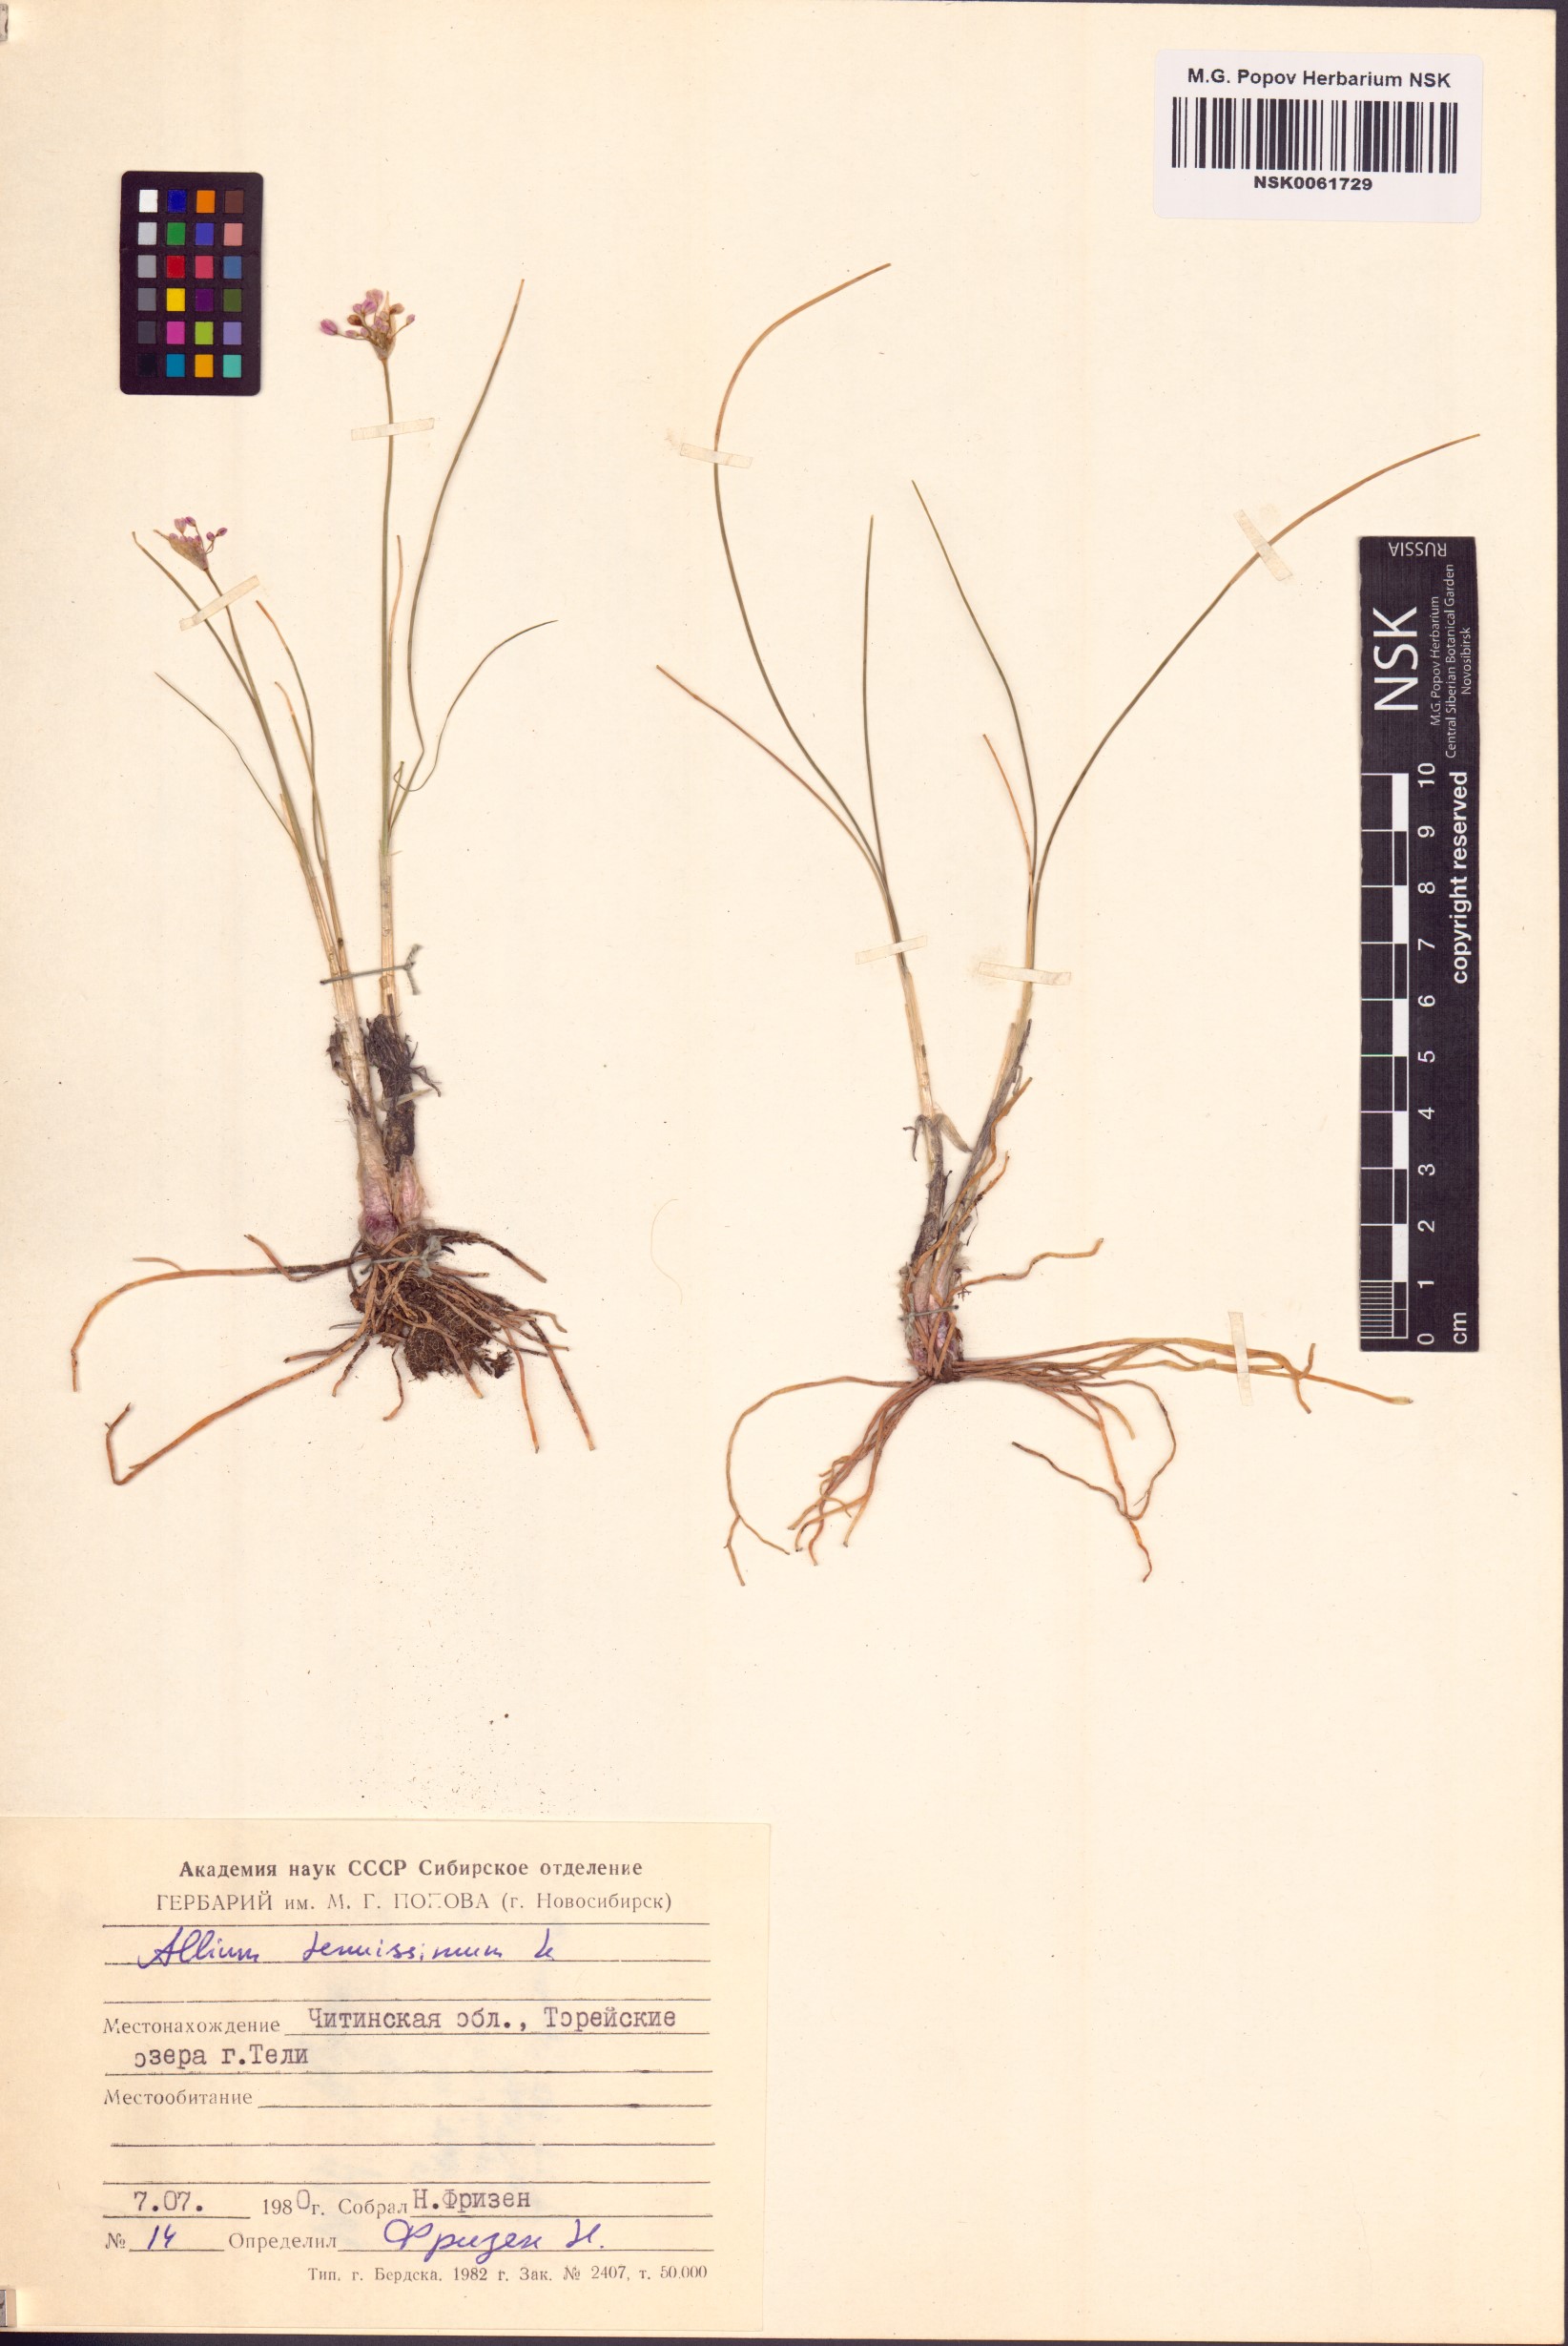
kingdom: Plantae
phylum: Tracheophyta
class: Liliopsida
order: Asparagales
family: Amaryllidaceae
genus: Allium
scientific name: Allium tenuissimum
